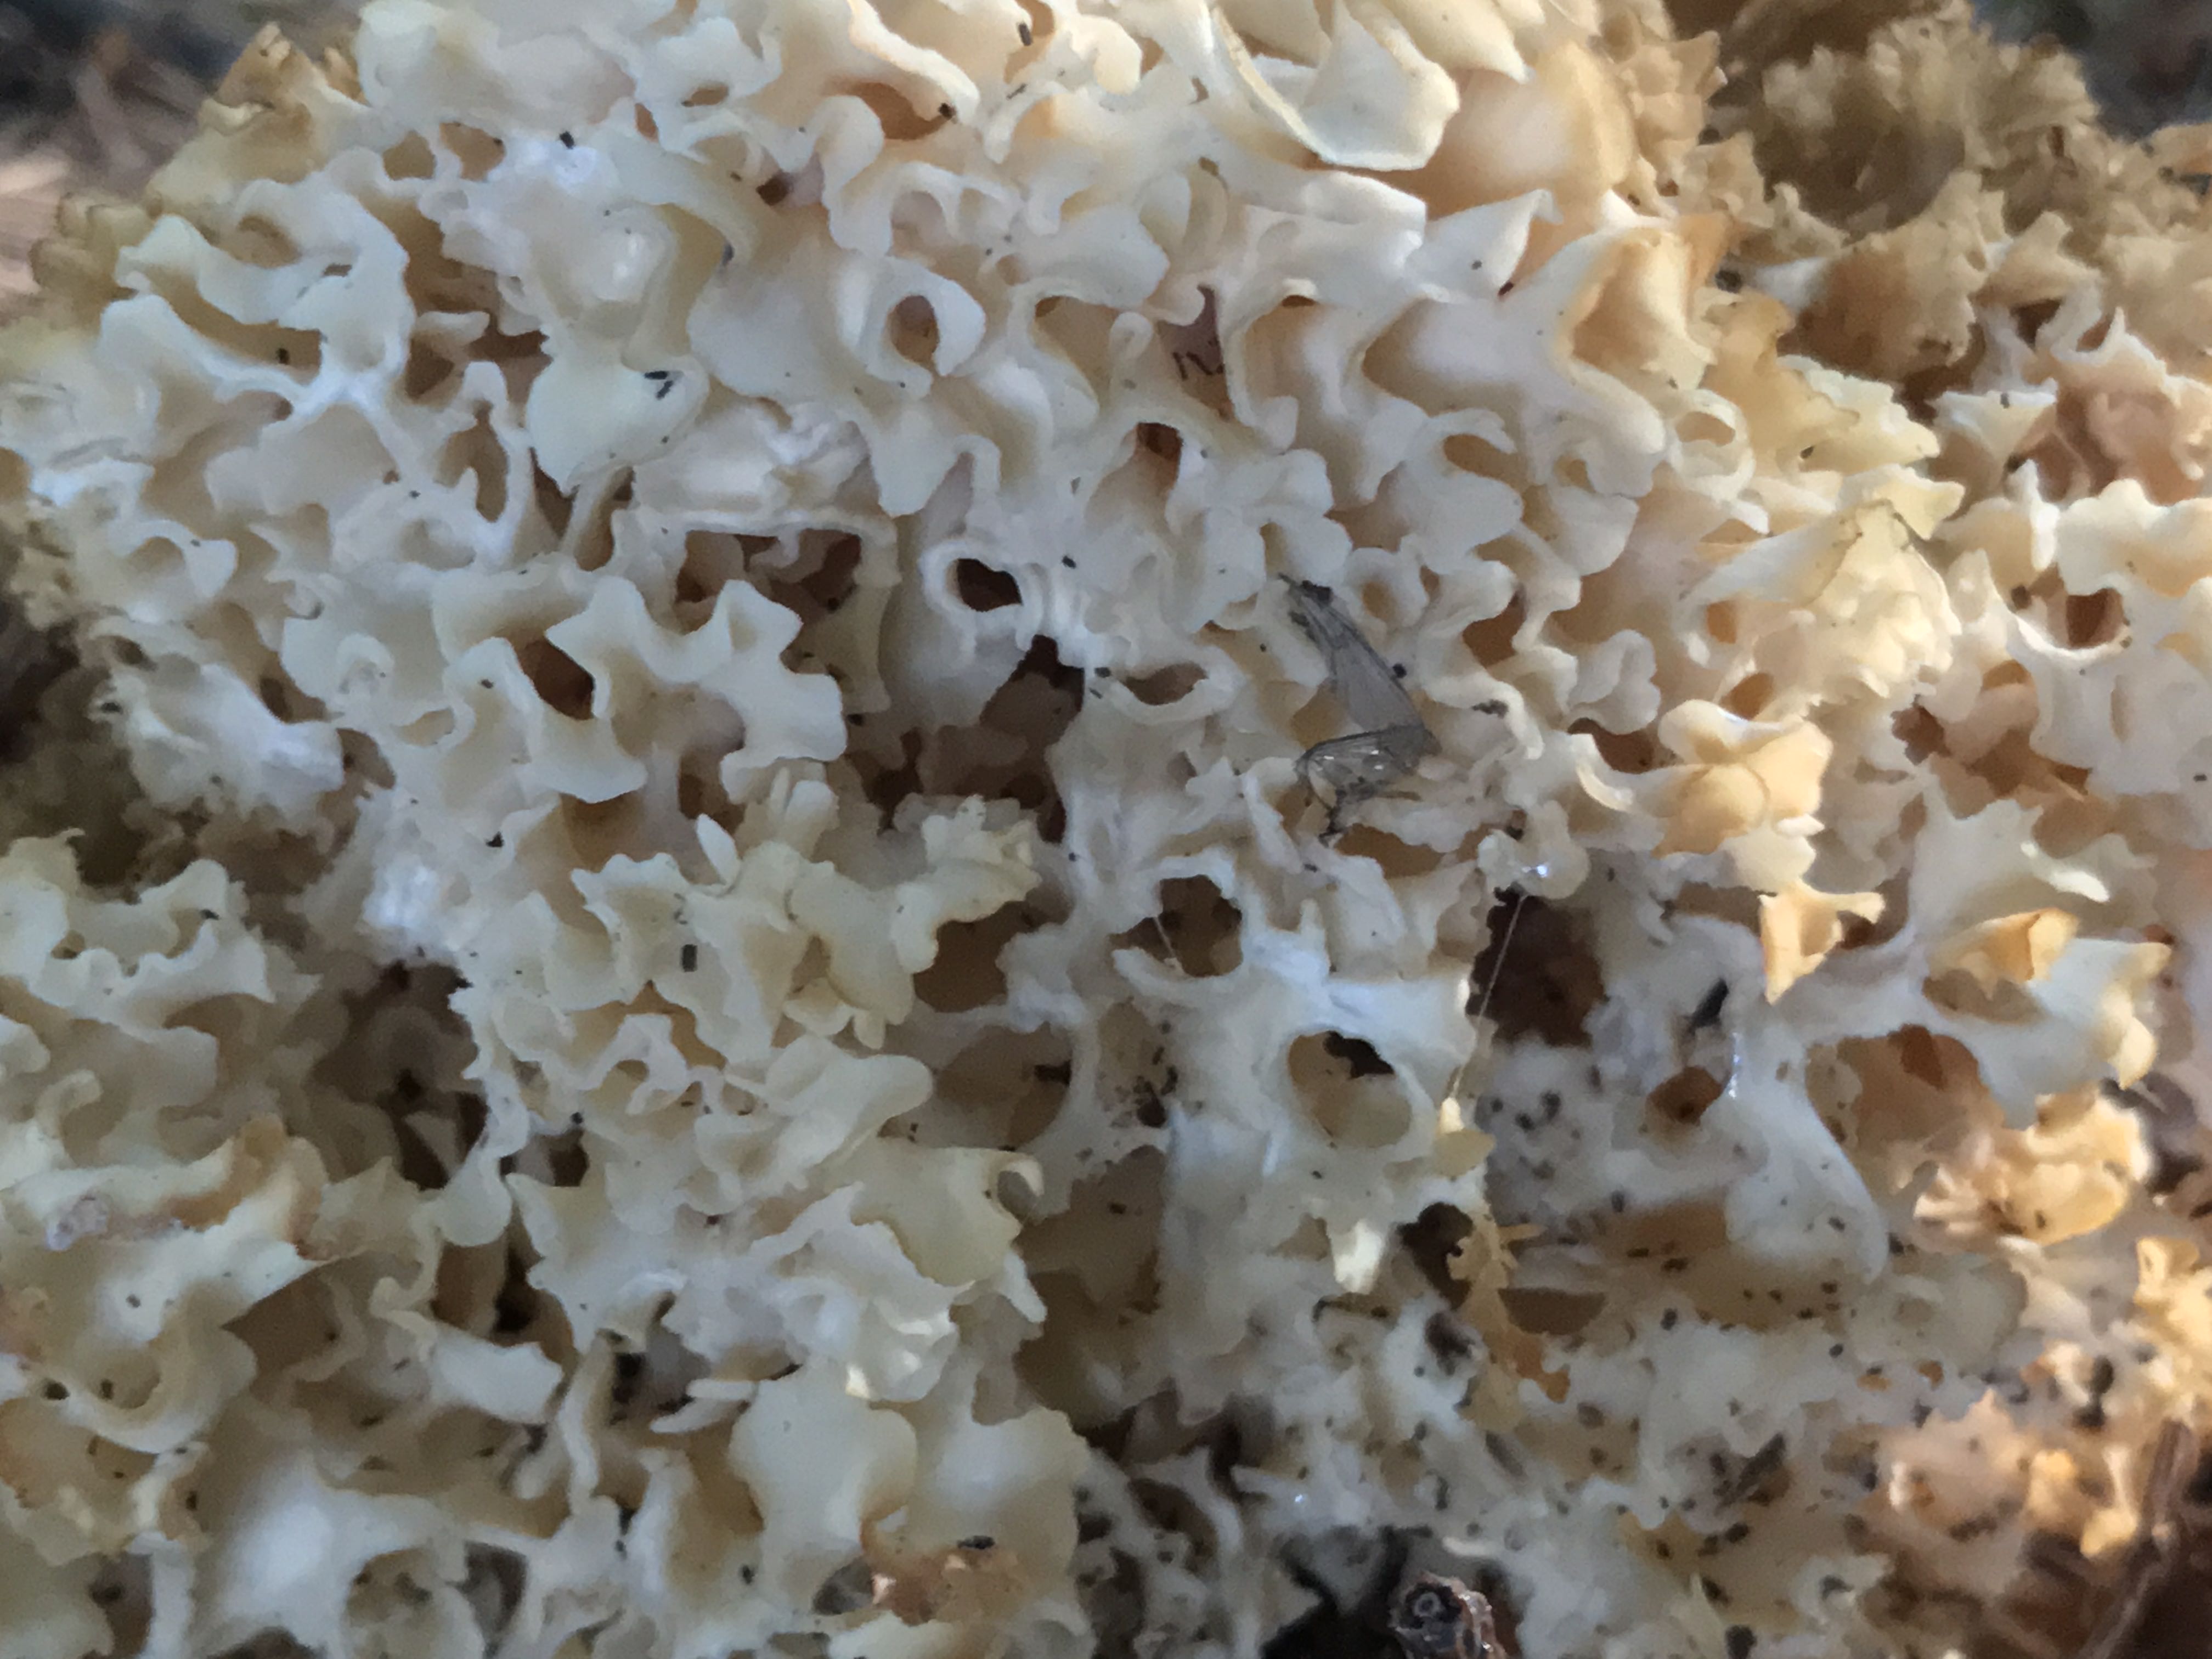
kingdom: Fungi
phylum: Basidiomycota
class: Agaricomycetes
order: Polyporales
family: Sparassidaceae
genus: Sparassis
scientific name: Sparassis crispa
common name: kruset blomkålssvamp
